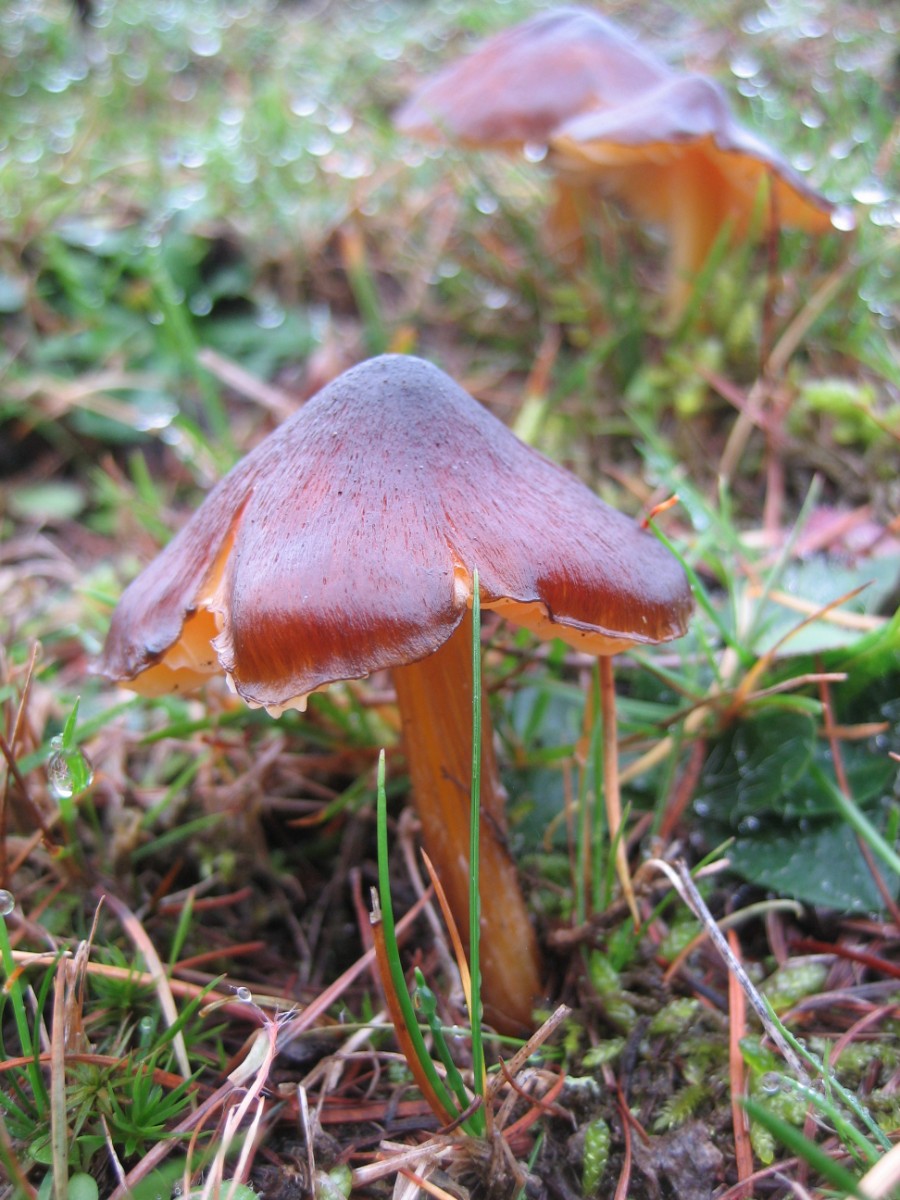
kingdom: Fungi
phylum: Basidiomycota
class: Agaricomycetes
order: Agaricales
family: Hygrophoraceae
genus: Hygrocybe
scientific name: Hygrocybe spadicea
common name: daddelbrun vokshat
